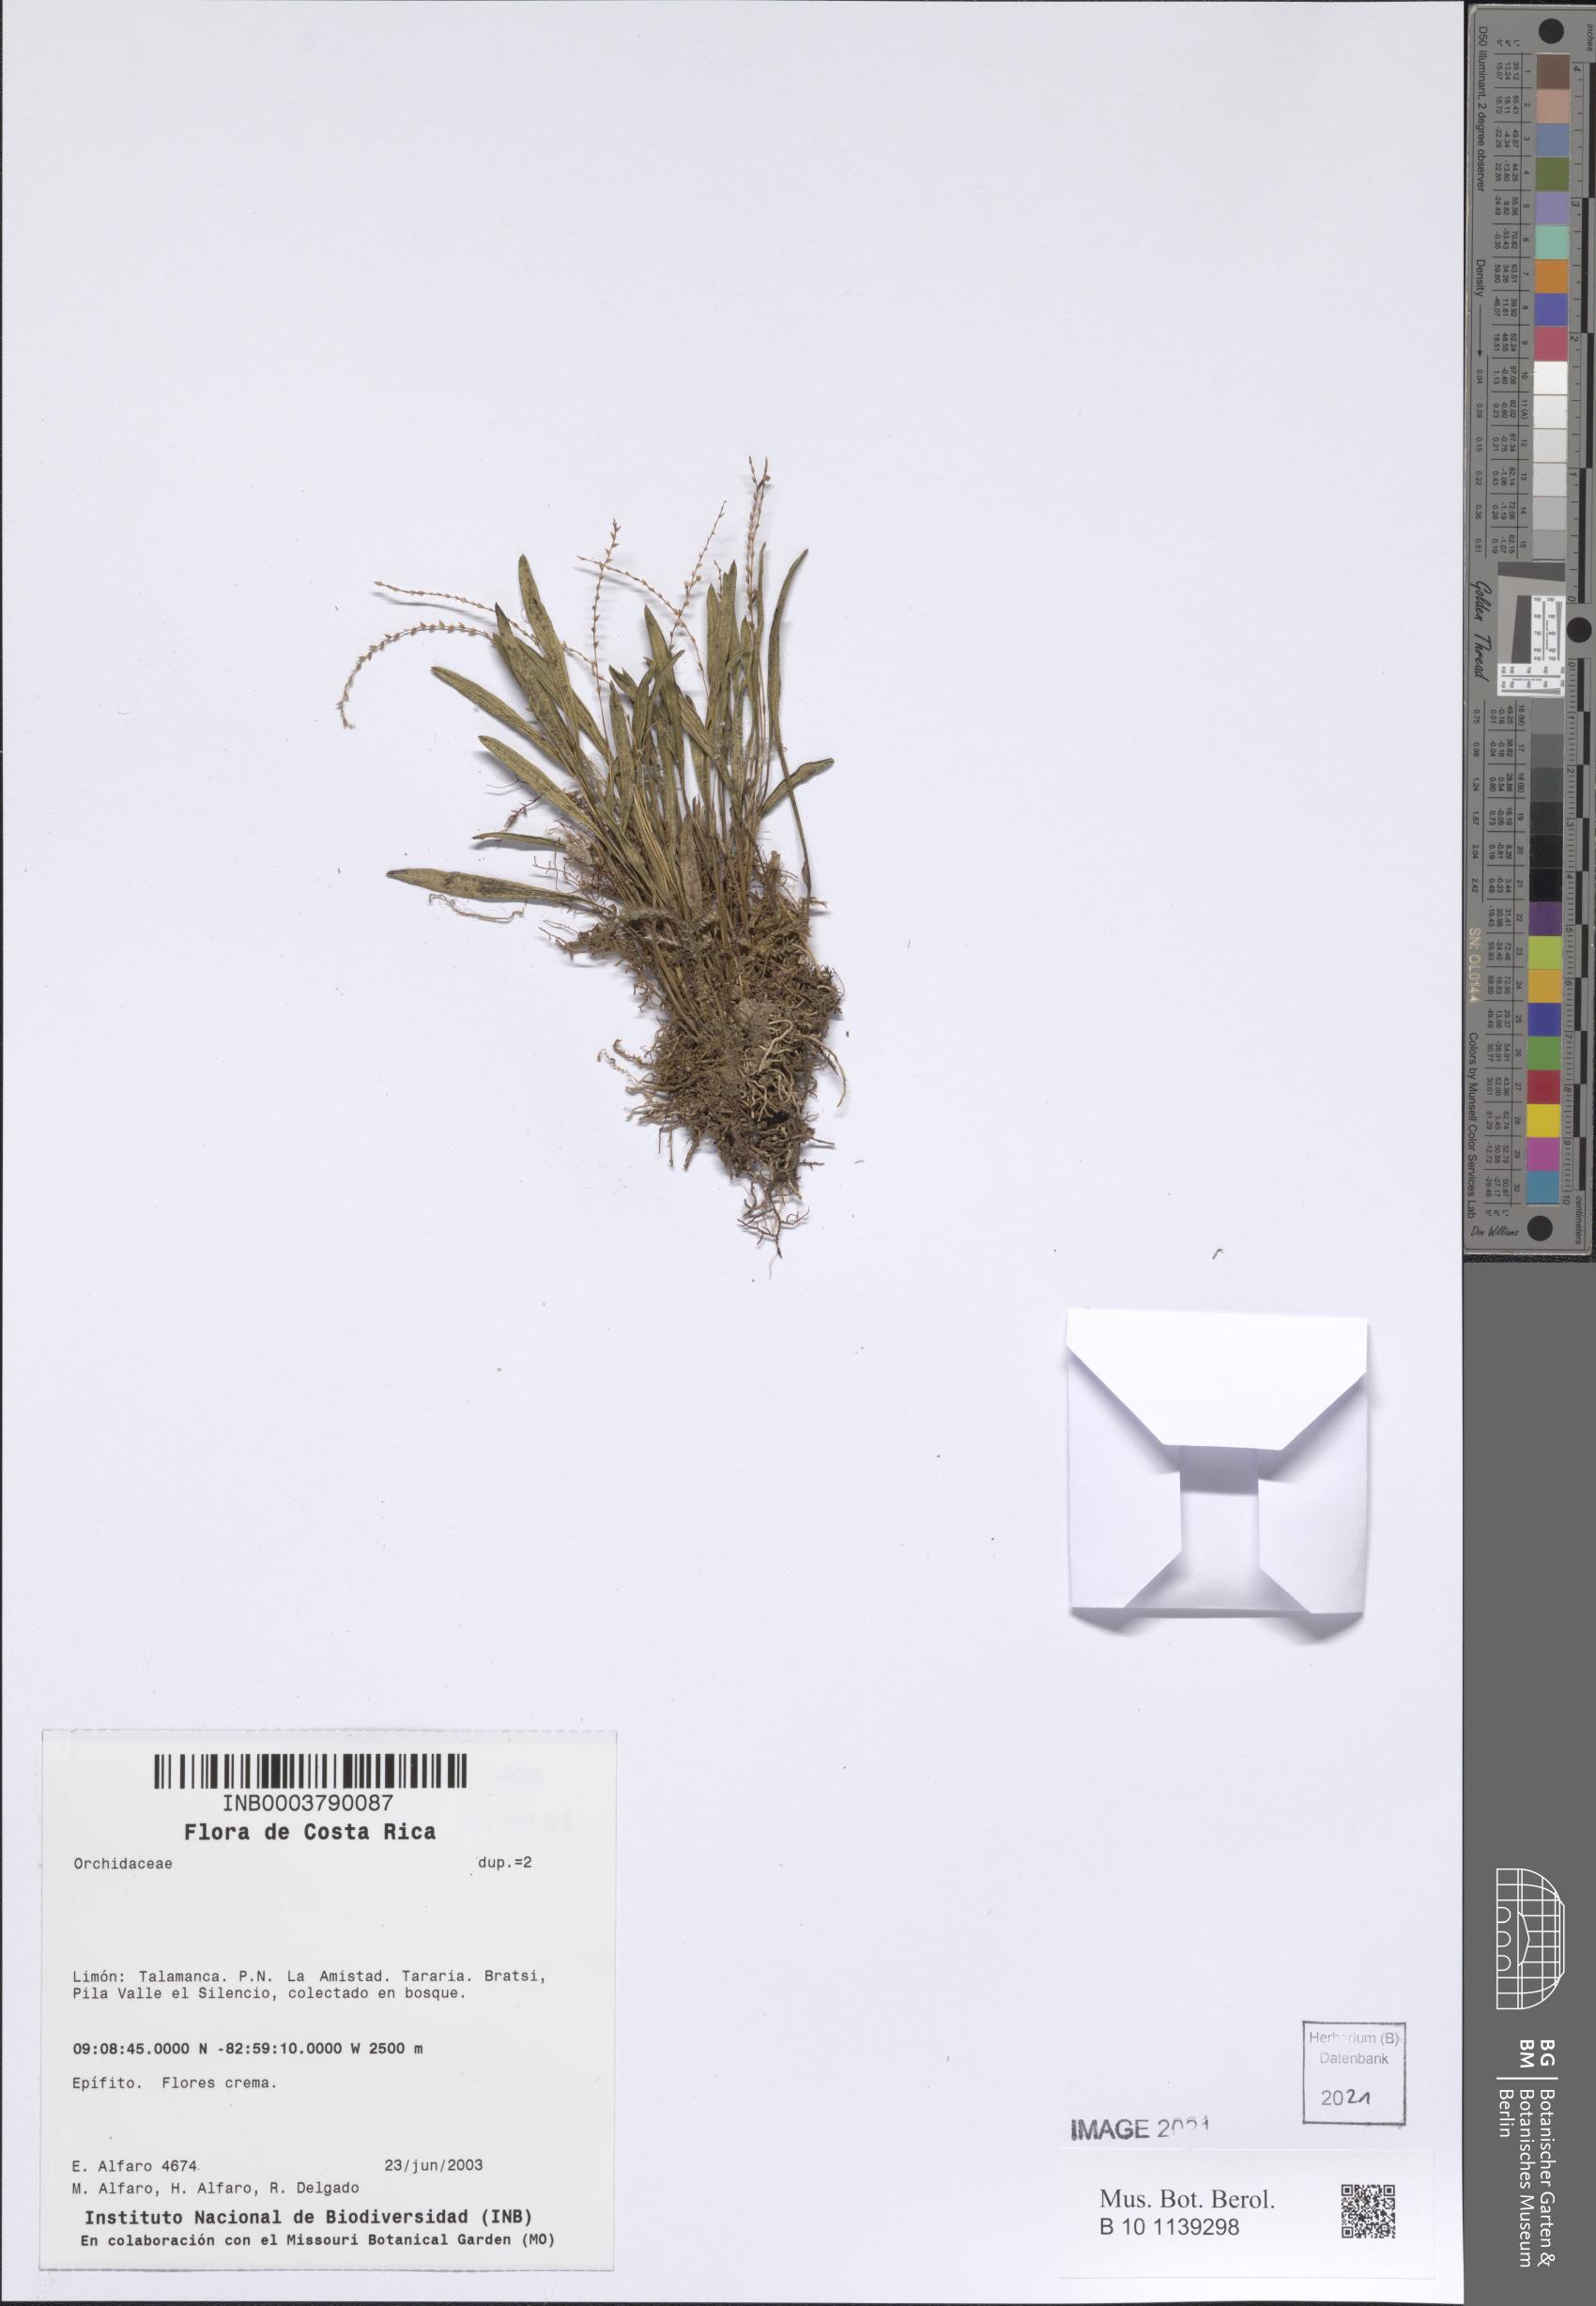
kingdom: Plantae
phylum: Tracheophyta
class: Liliopsida
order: Asparagales
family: Orchidaceae
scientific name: Orchidaceae
